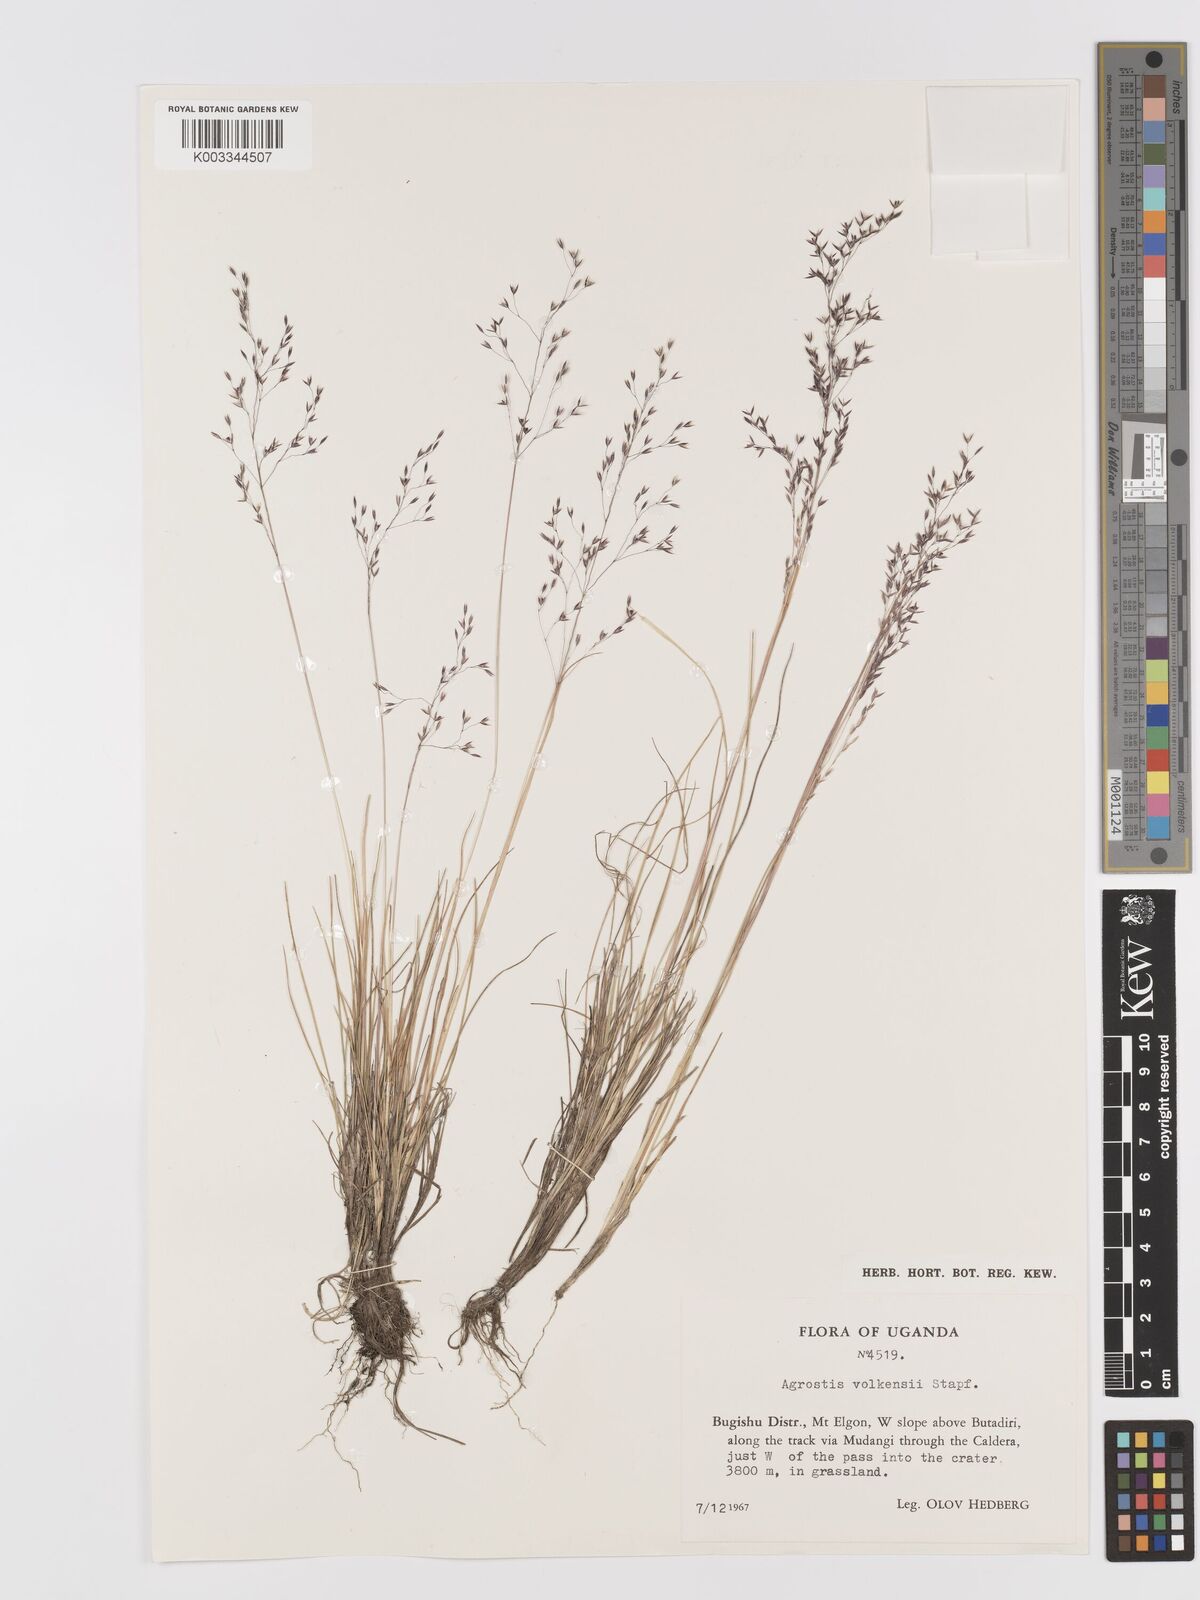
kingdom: Plantae
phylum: Tracheophyta
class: Liliopsida
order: Poales
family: Poaceae
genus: Agrostis
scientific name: Agrostis volkensii
